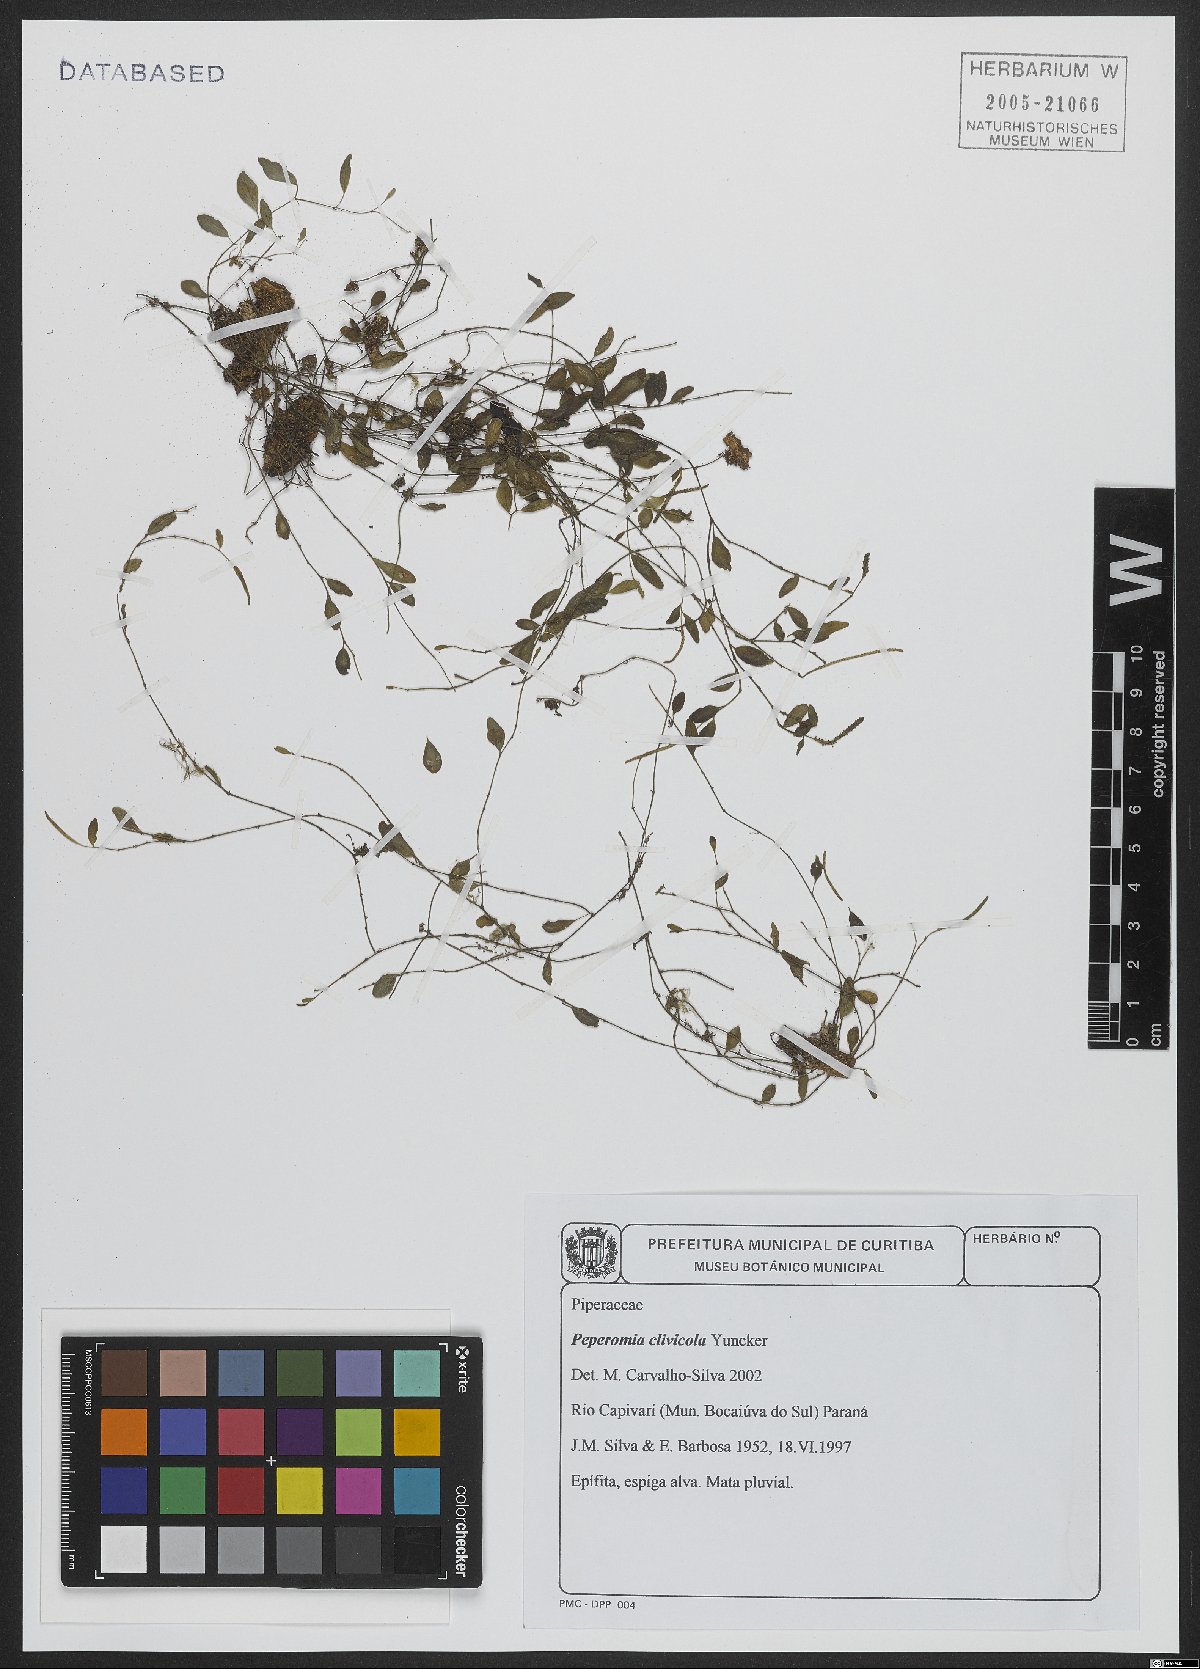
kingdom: Plantae
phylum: Tracheophyta
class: Magnoliopsida
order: Piperales
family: Piperaceae
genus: Peperomia
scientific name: Peperomia clivicola
